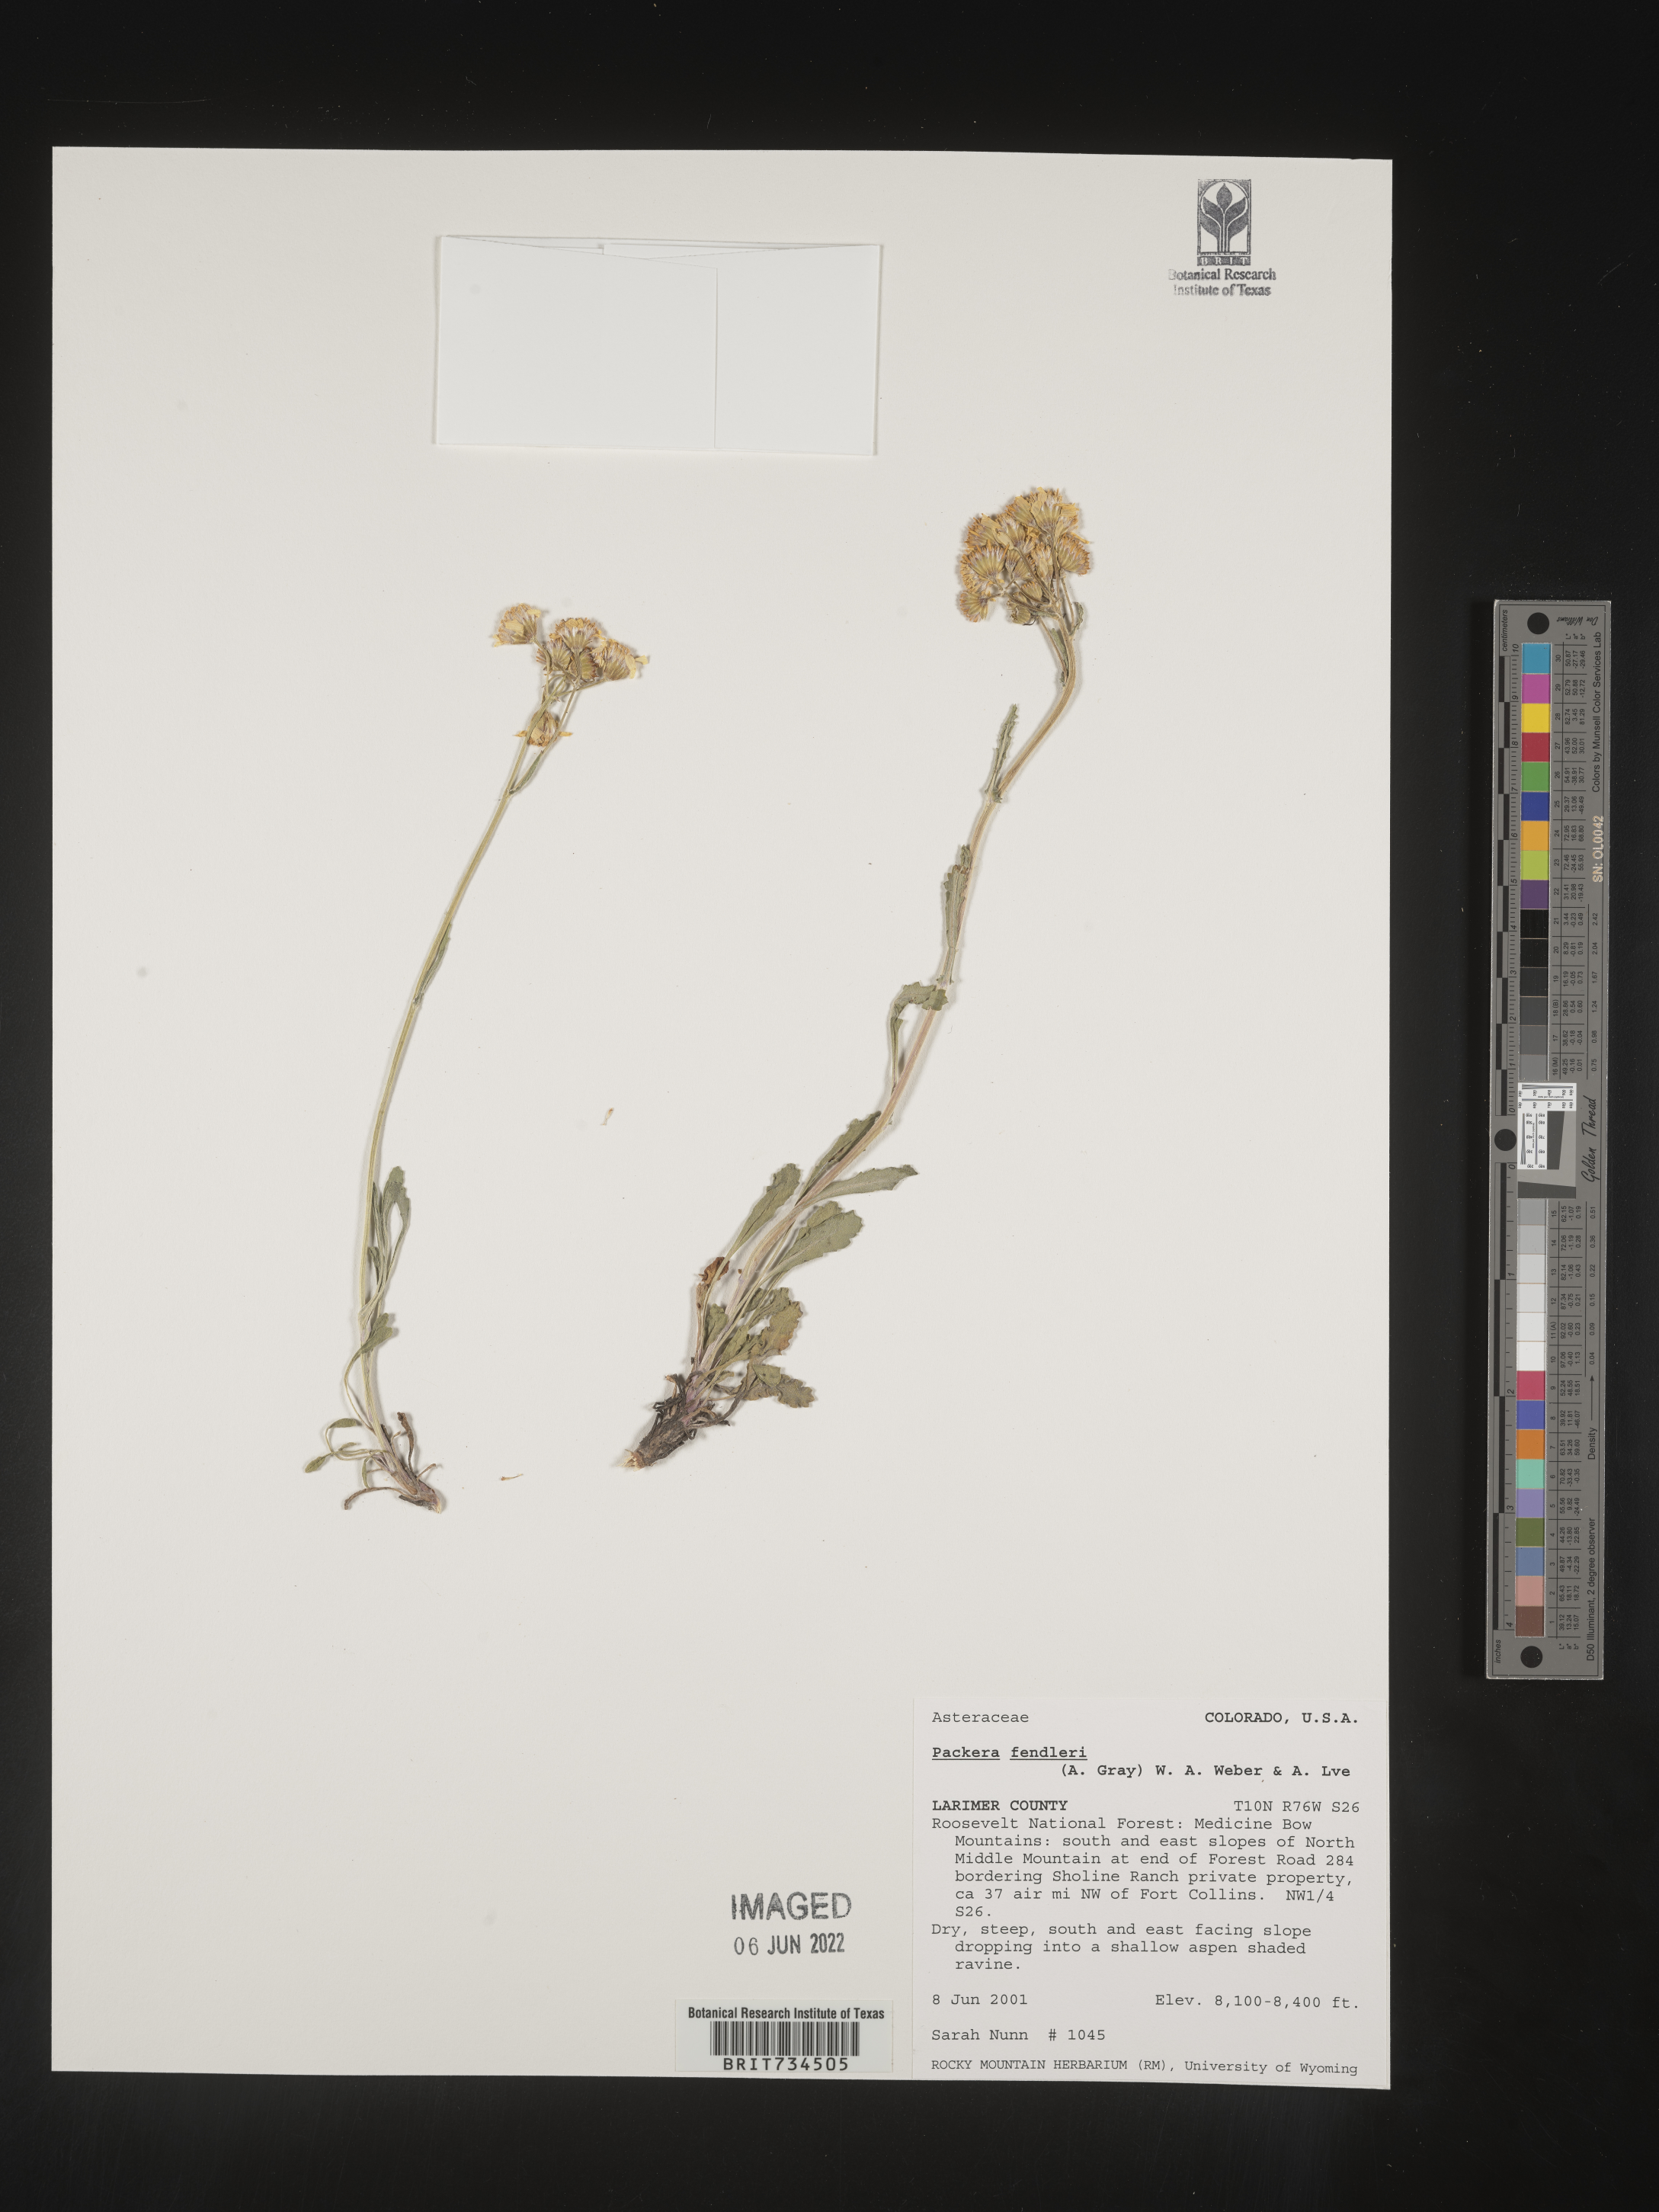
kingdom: Plantae
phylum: Tracheophyta
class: Magnoliopsida
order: Asterales
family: Asteraceae
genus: Packera
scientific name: Packera fendleri
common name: Notch-leaf butterweed
